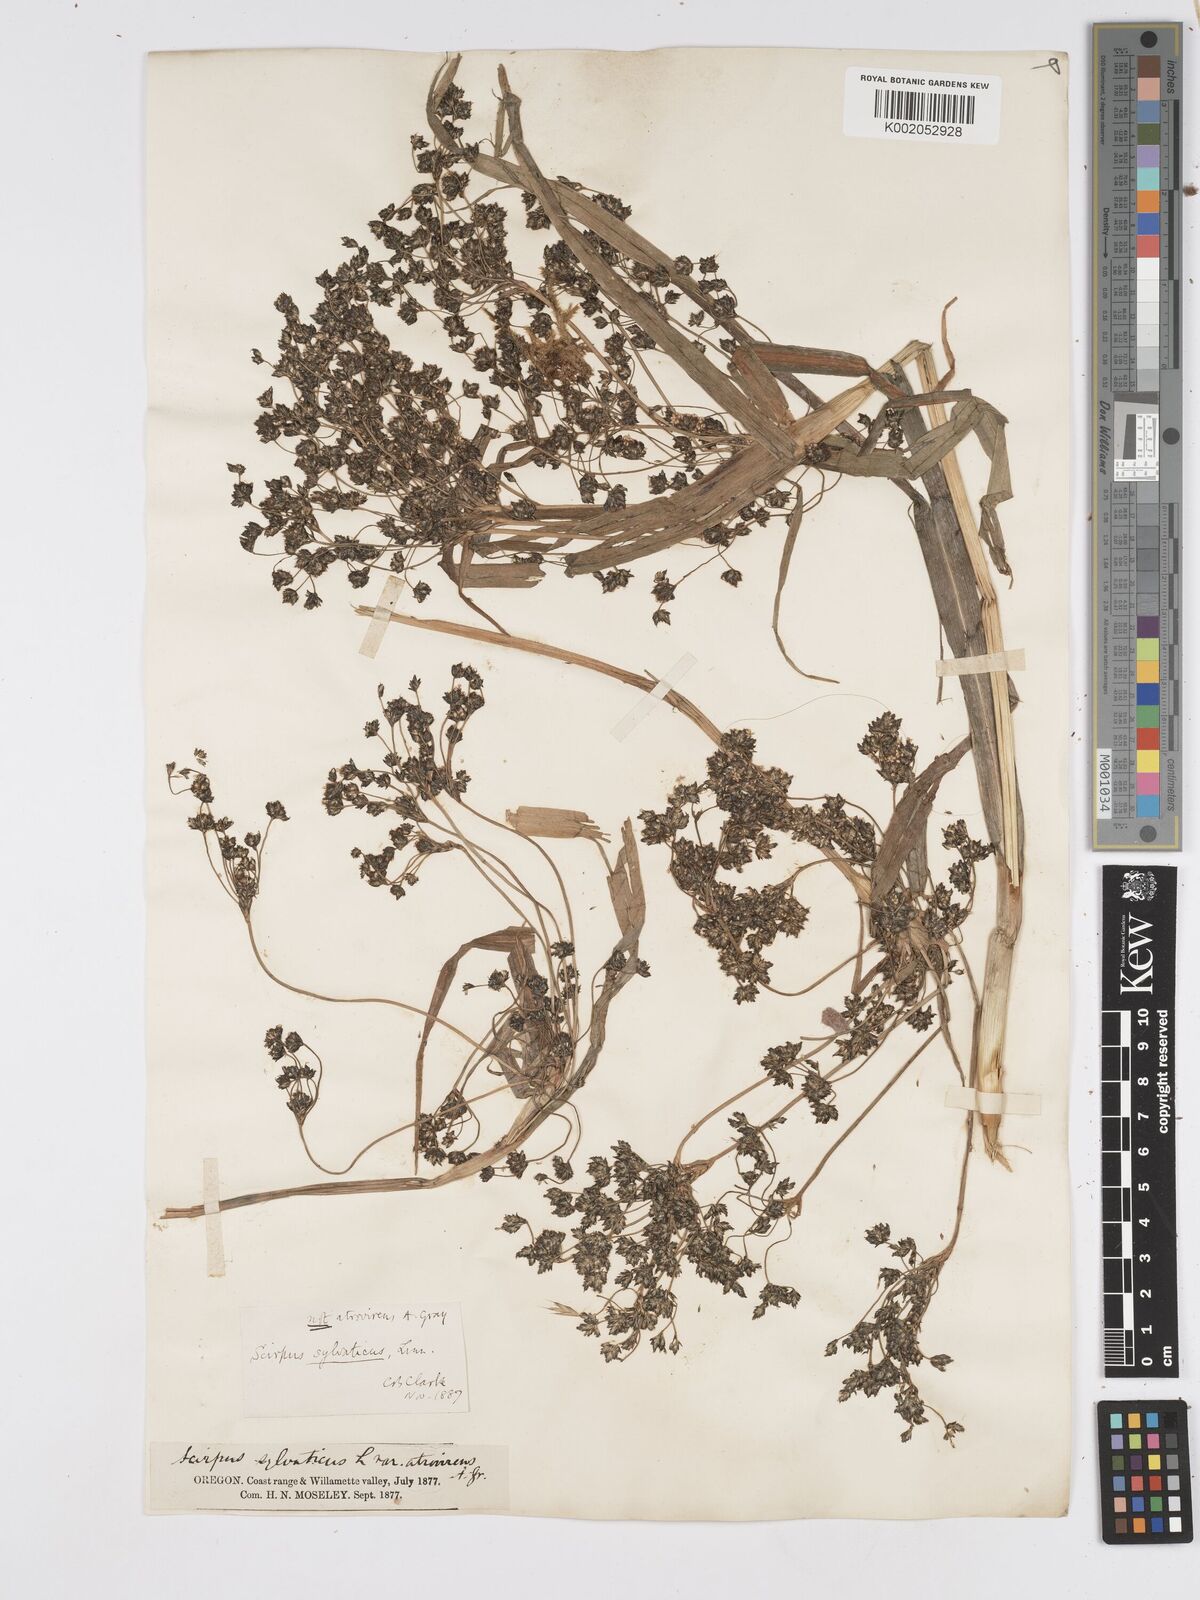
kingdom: Plantae
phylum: Tracheophyta
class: Liliopsida
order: Poales
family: Cyperaceae
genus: Scirpus
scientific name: Scirpus sylvaticus
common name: Wood club-rush
